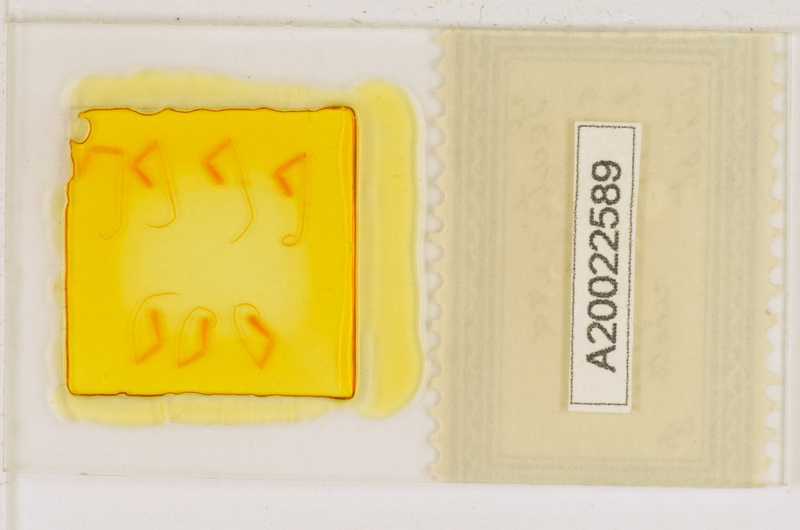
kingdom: Animalia
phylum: Arthropoda
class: Chilopoda
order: Scutigeromorpha
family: Scutigeridae
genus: Scutigera
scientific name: Scutigera coleoptrata
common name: House centipede
